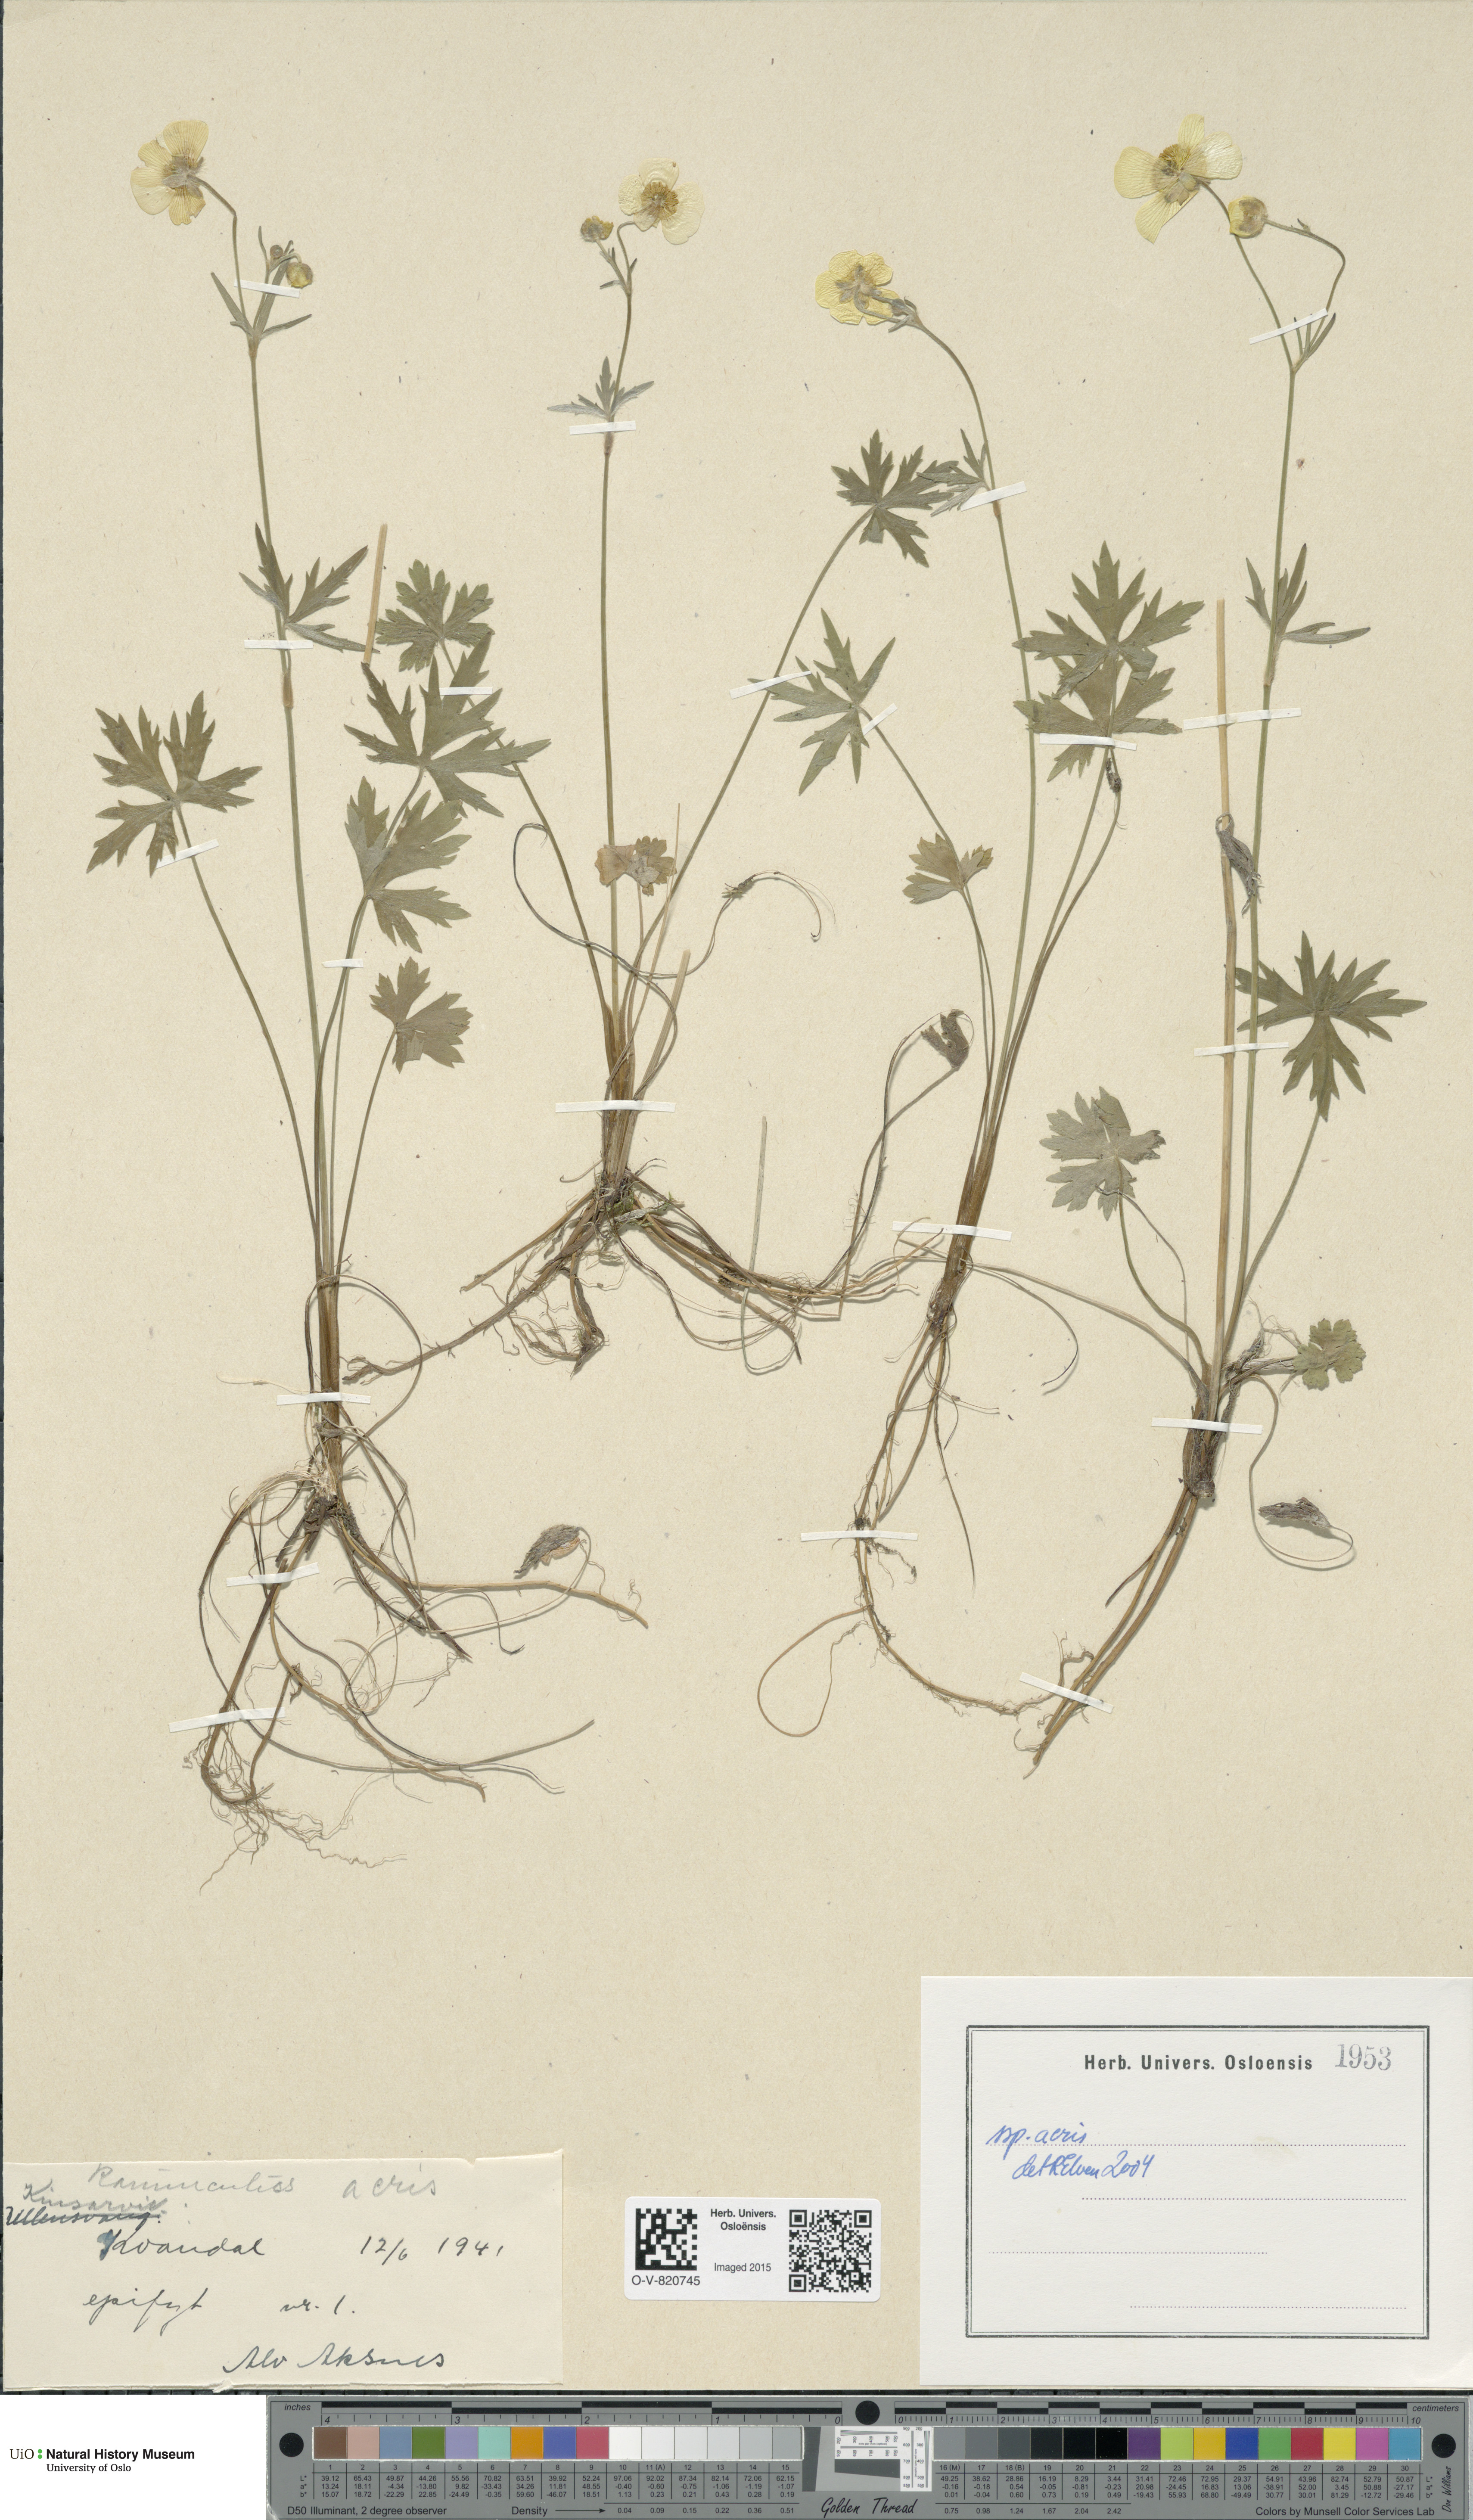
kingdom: Plantae
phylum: Tracheophyta
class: Magnoliopsida
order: Ranunculales
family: Ranunculaceae
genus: Ranunculus
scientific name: Ranunculus acris
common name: Meadow buttercup
